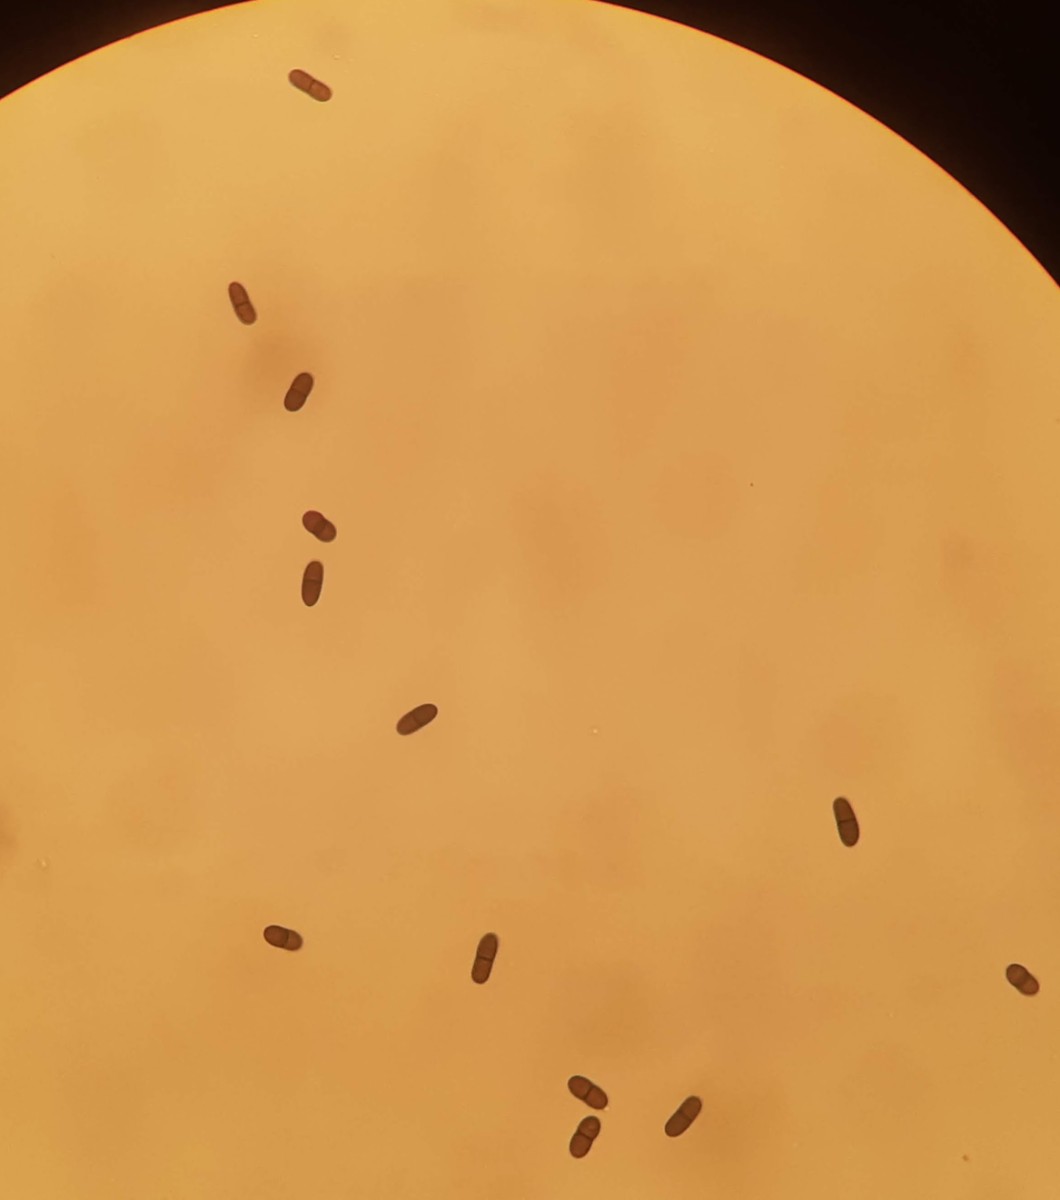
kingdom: Fungi
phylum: Ascomycota
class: Dothideomycetes
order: Botryosphaeriales
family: Botryosphaeriaceae
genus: Diplodia
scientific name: Diplodia lonicerae
